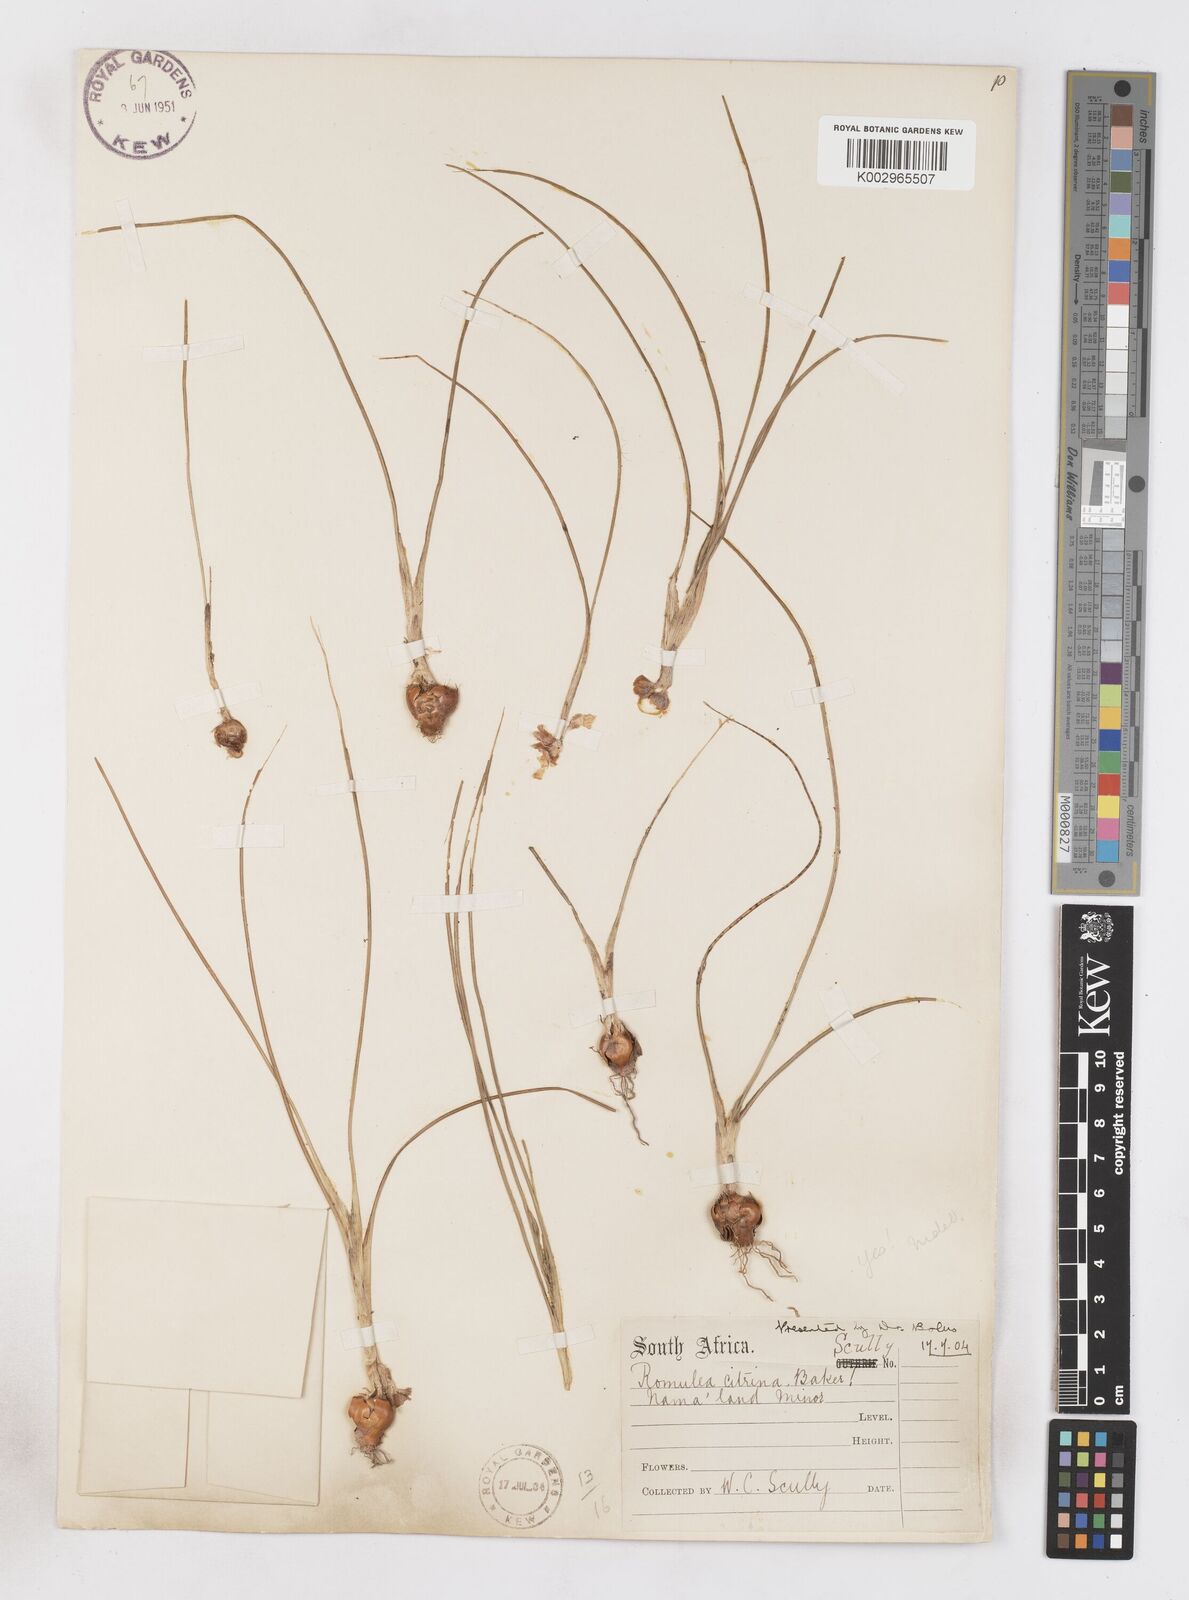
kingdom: Plantae
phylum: Tracheophyta
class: Liliopsida
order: Asparagales
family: Iridaceae
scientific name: Iridaceae
